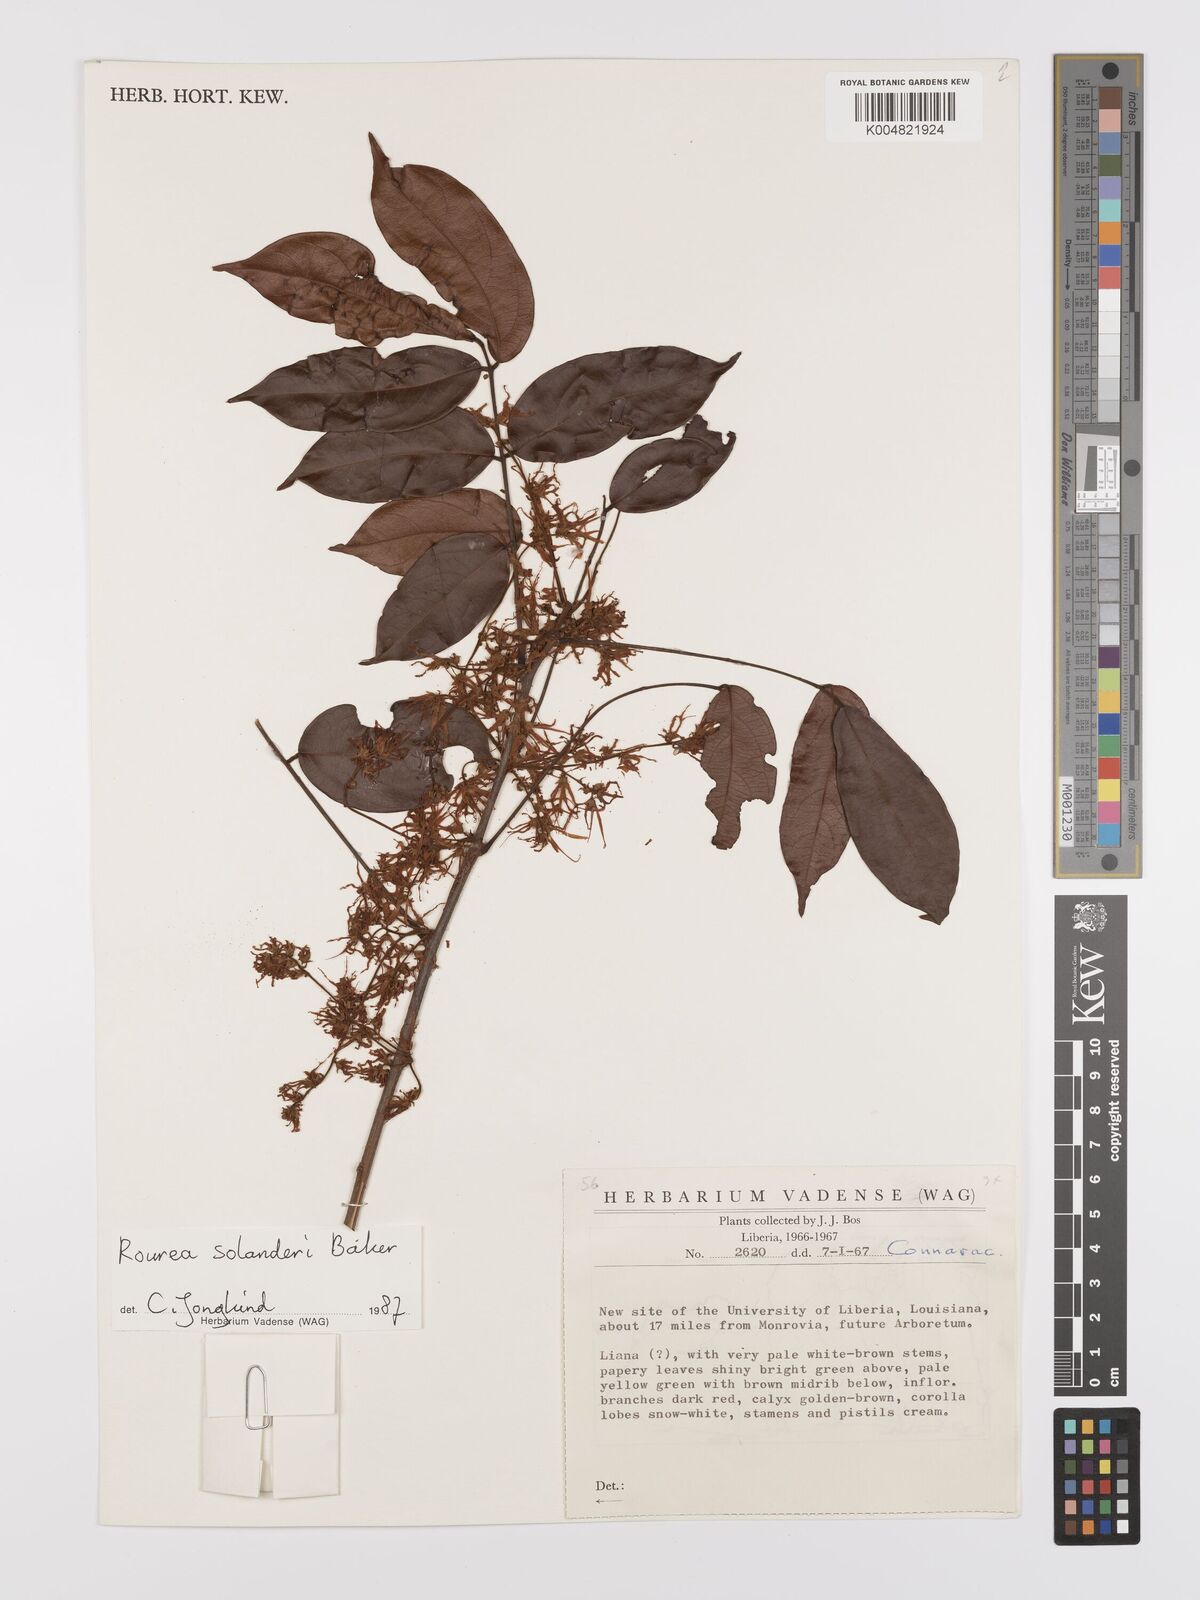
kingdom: Plantae
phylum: Tracheophyta
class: Magnoliopsida
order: Oxalidales
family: Connaraceae
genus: Rourea
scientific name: Rourea solanderi
